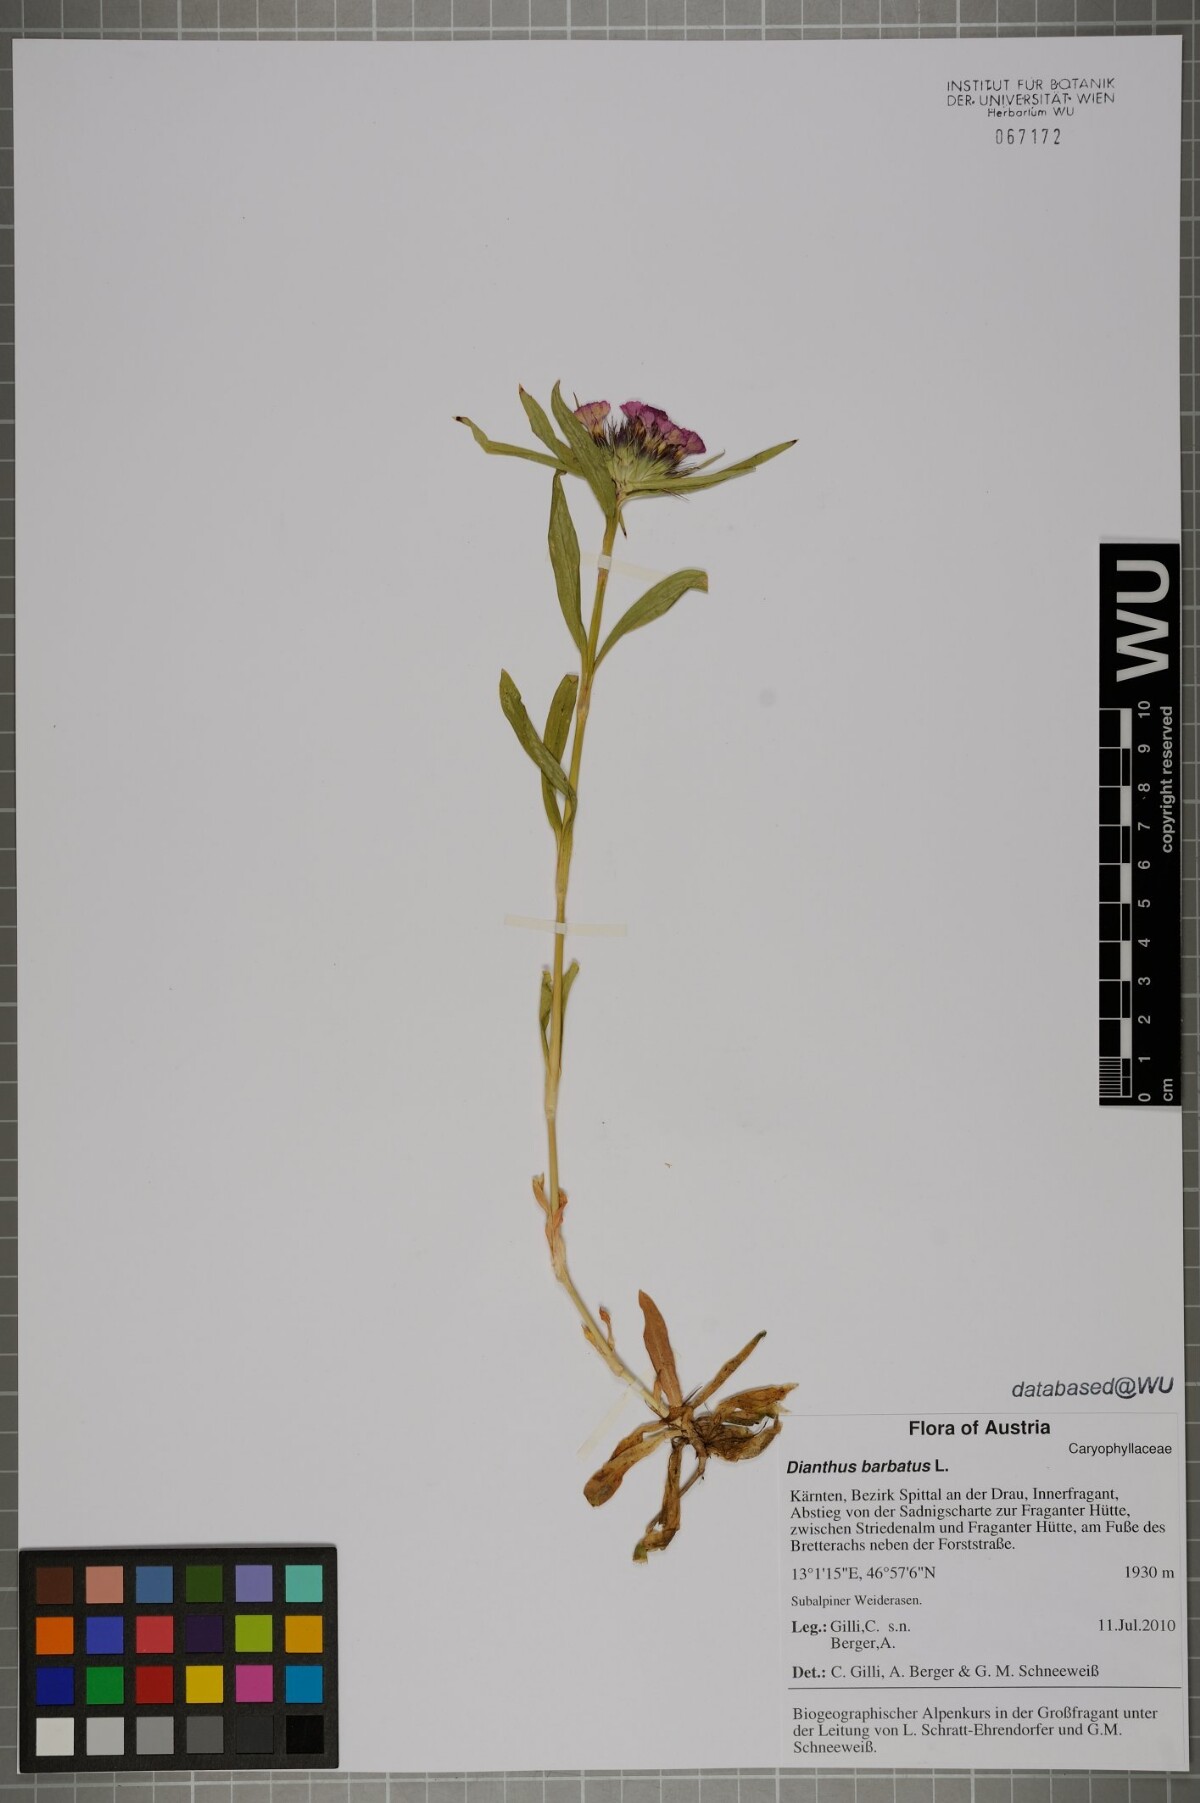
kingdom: Plantae
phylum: Tracheophyta
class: Magnoliopsida
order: Caryophyllales
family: Caryophyllaceae
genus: Dianthus
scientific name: Dianthus barbatus
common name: Sweet-william
